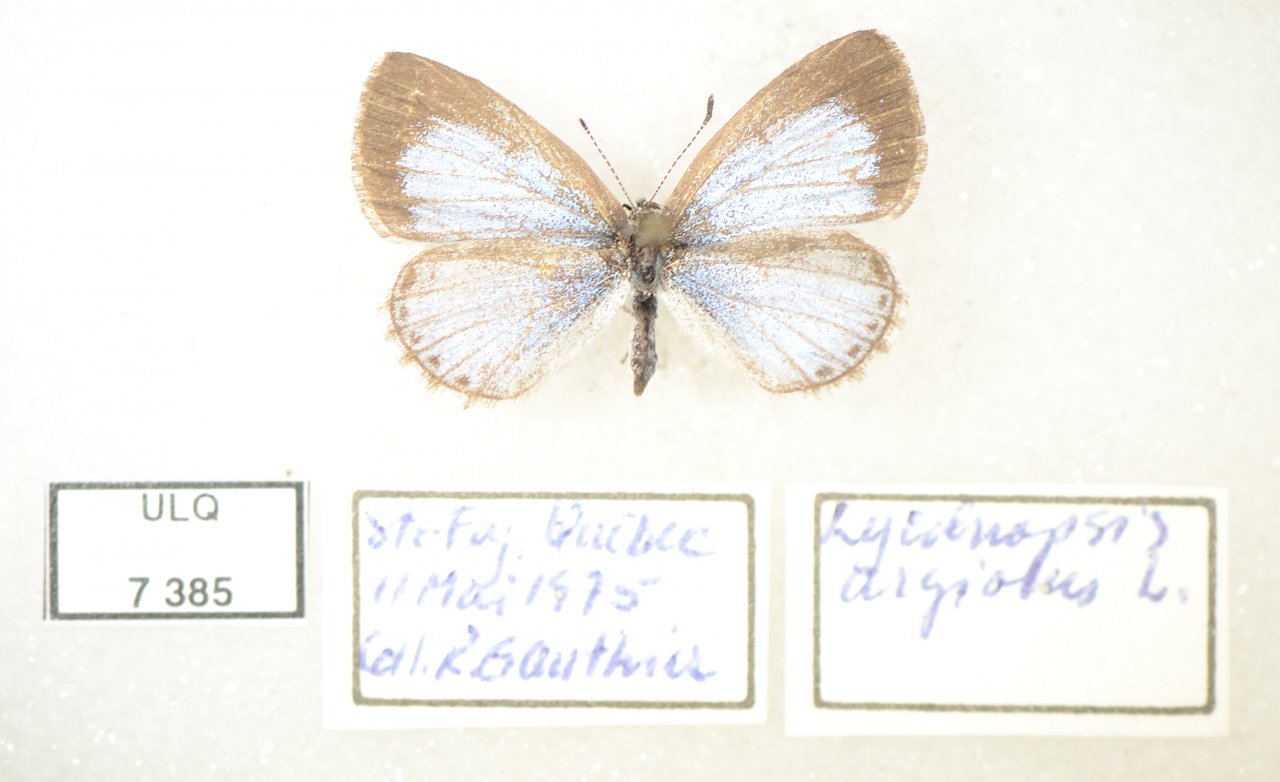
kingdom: Animalia
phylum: Arthropoda
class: Insecta
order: Lepidoptera
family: Lycaenidae
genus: Celastrina
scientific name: Celastrina lucia
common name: Northern Spring Azure
